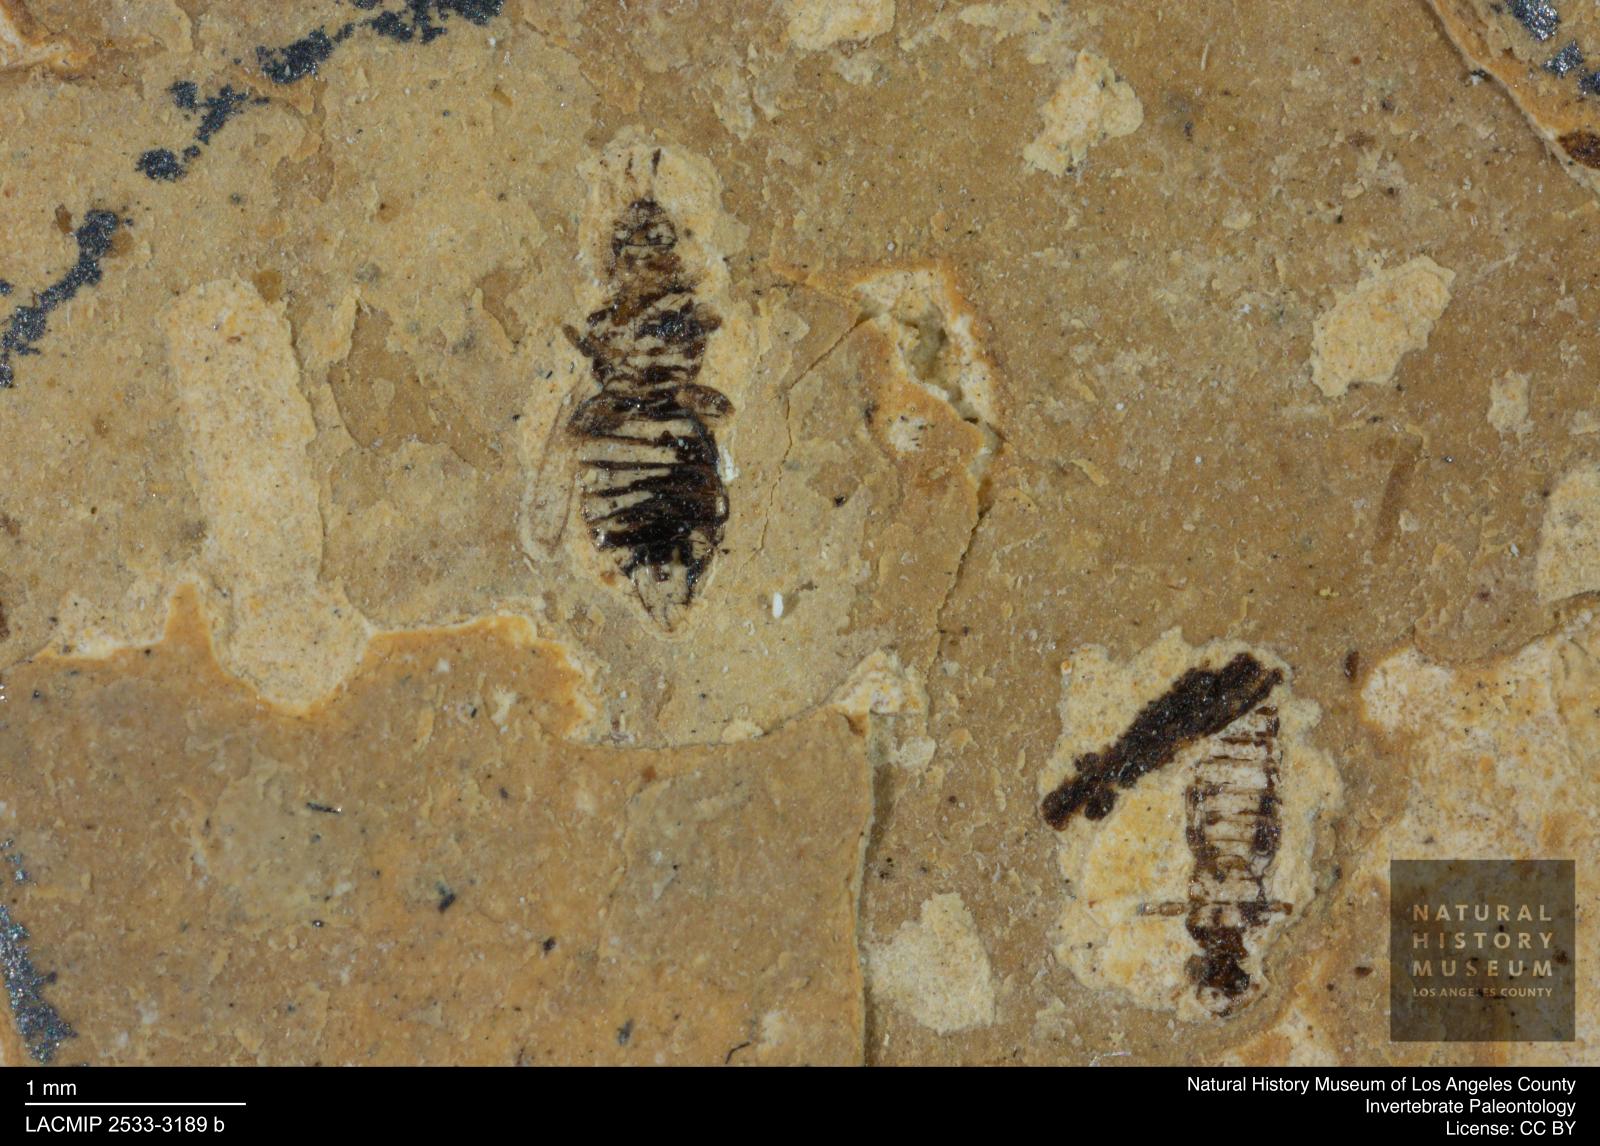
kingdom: Animalia
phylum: Arthropoda
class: Insecta
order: Thysanoptera
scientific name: Thysanoptera
